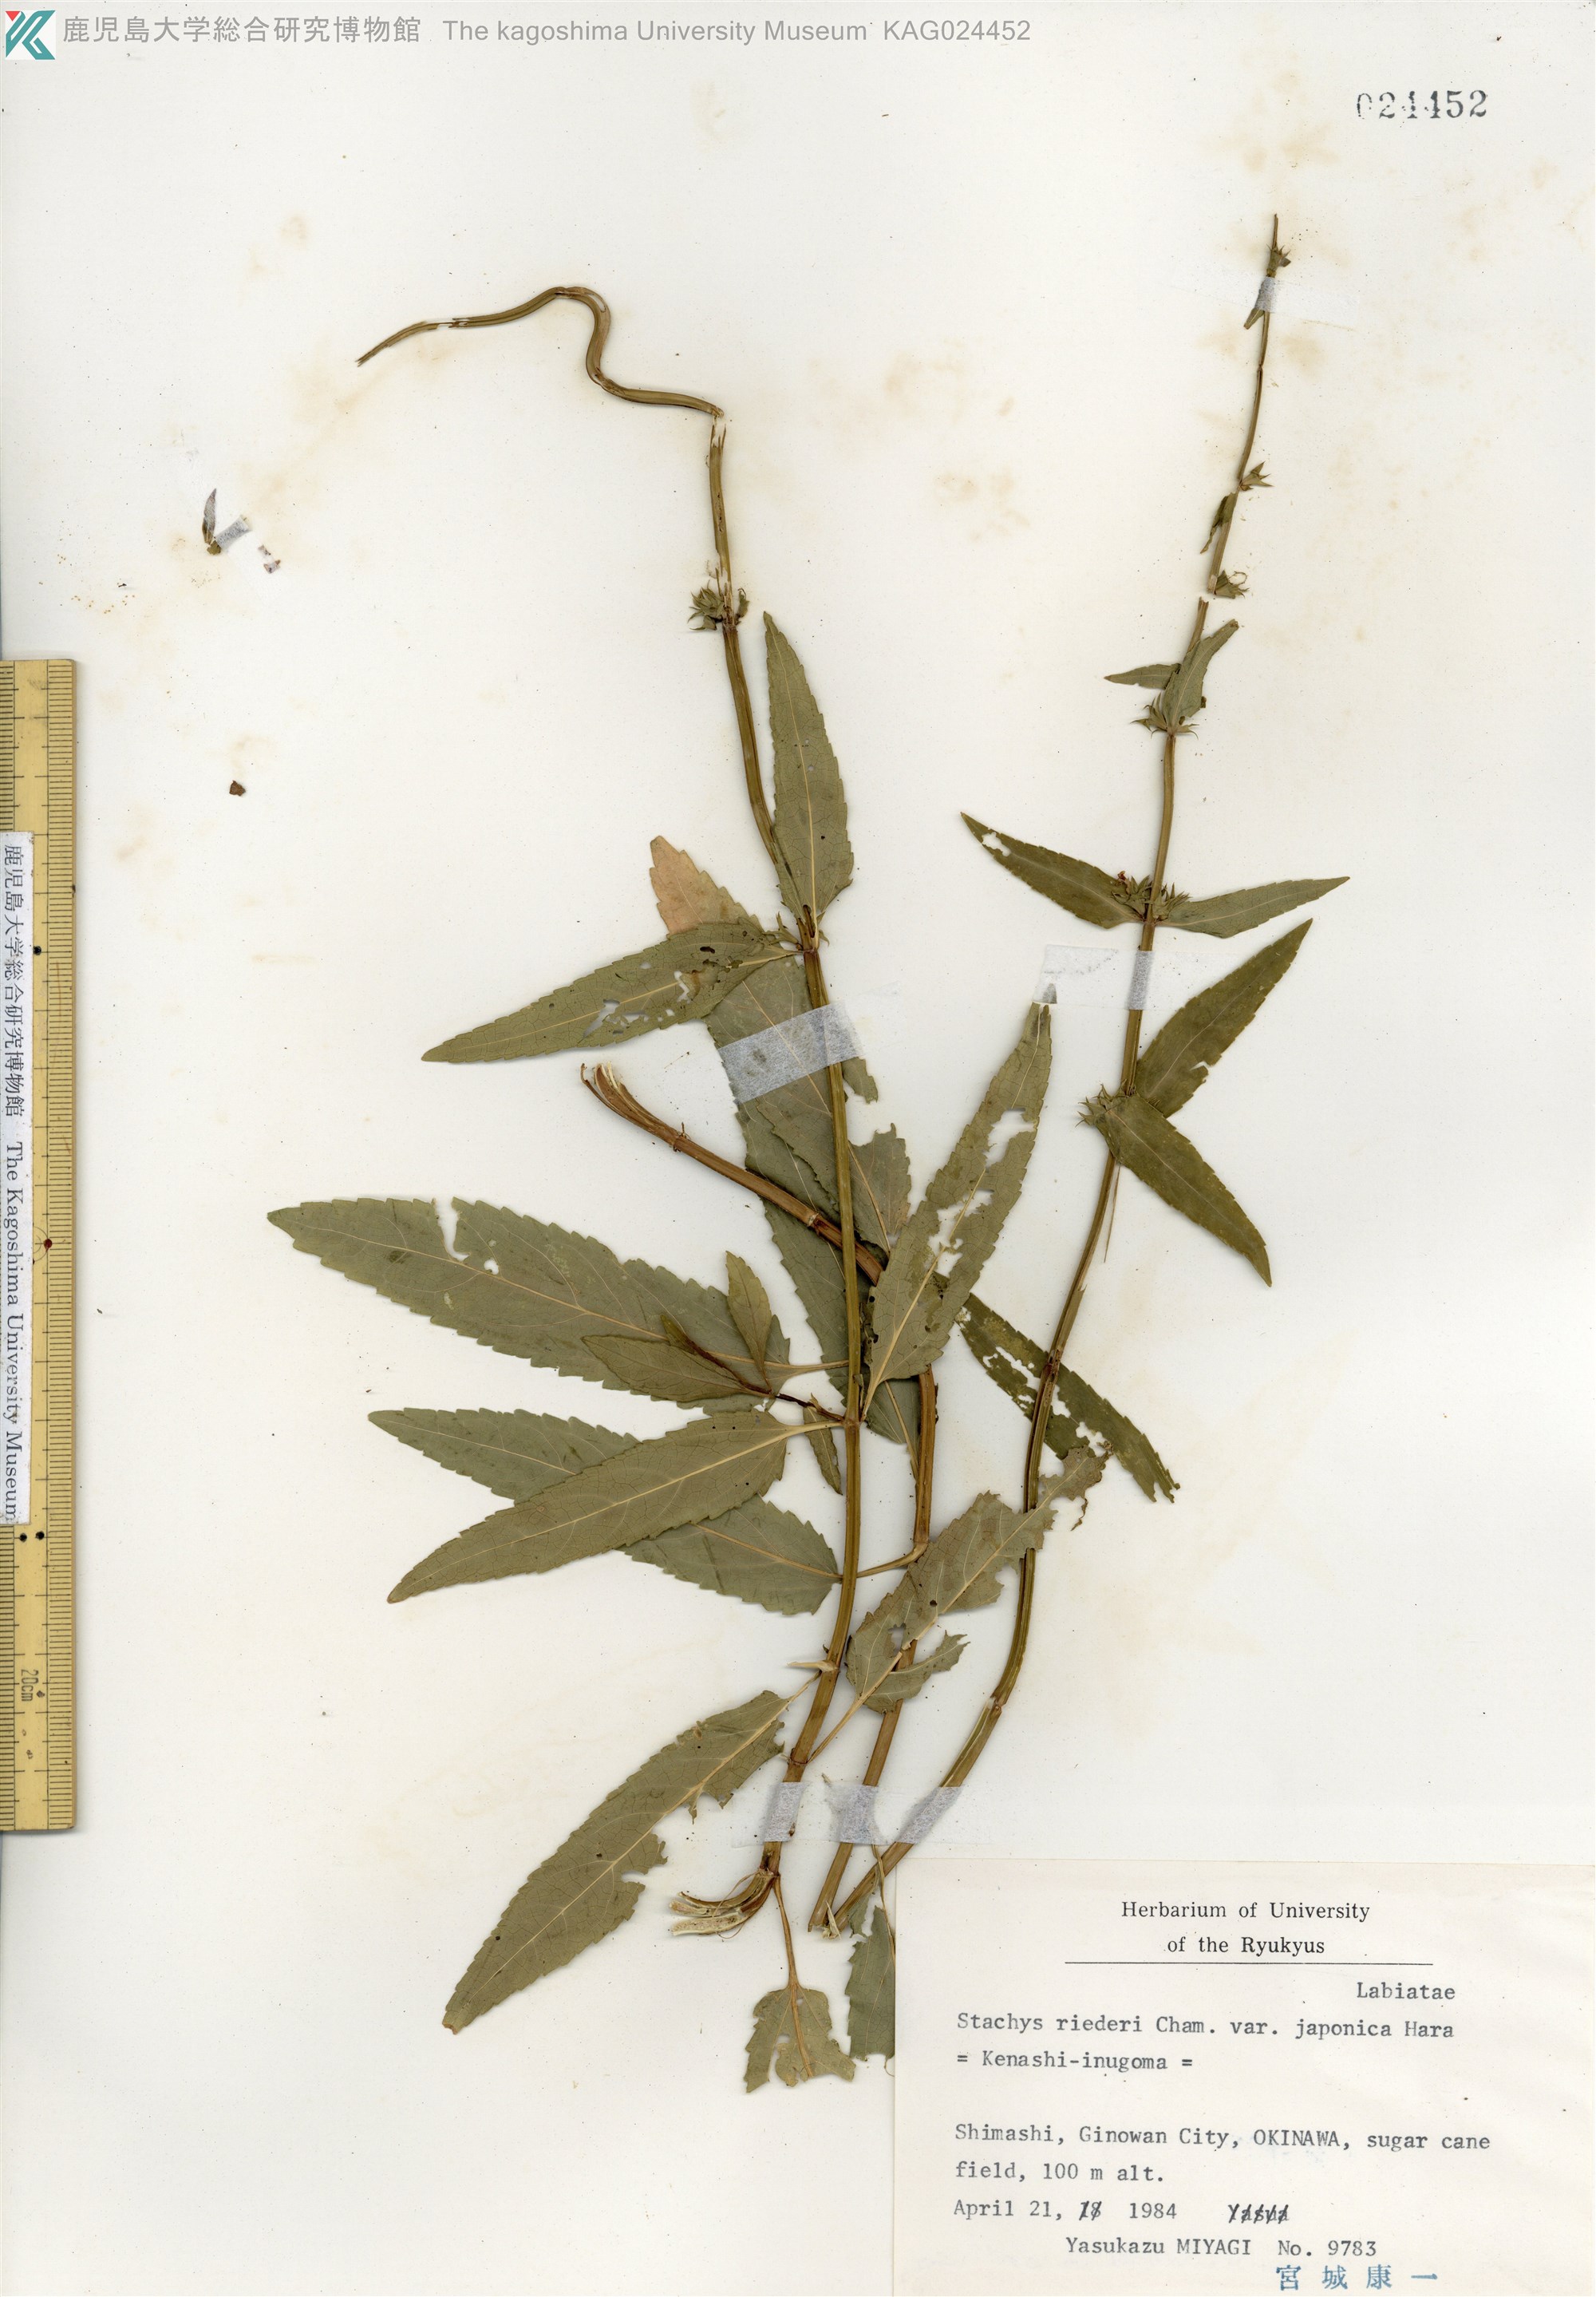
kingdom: Plantae
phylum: Tracheophyta
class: Magnoliopsida
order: Lamiales
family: Lamiaceae
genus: Stachys
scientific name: Stachys aspera
